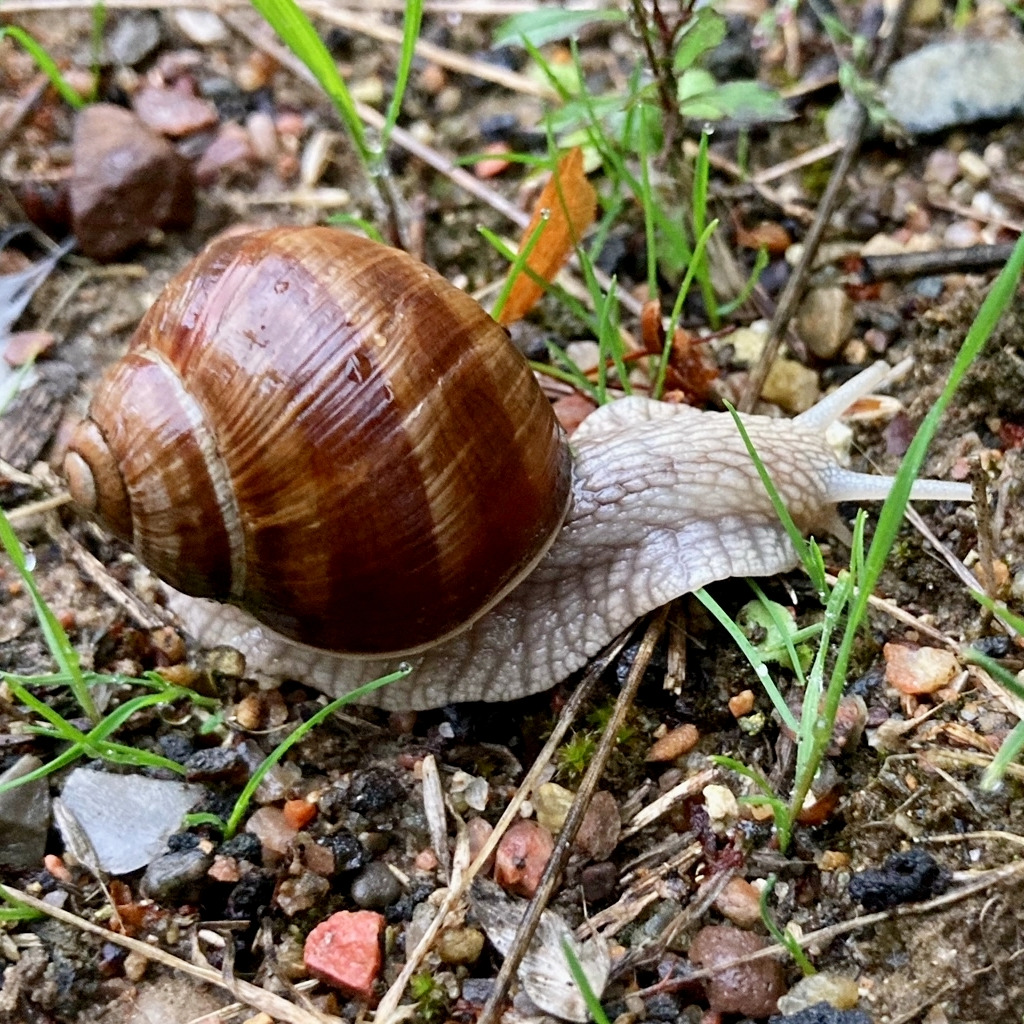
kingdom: Animalia
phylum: Mollusca
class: Gastropoda
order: Stylommatophora
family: Helicidae
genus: Helix
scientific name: Helix pomatia
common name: Vinbjergsnegl
